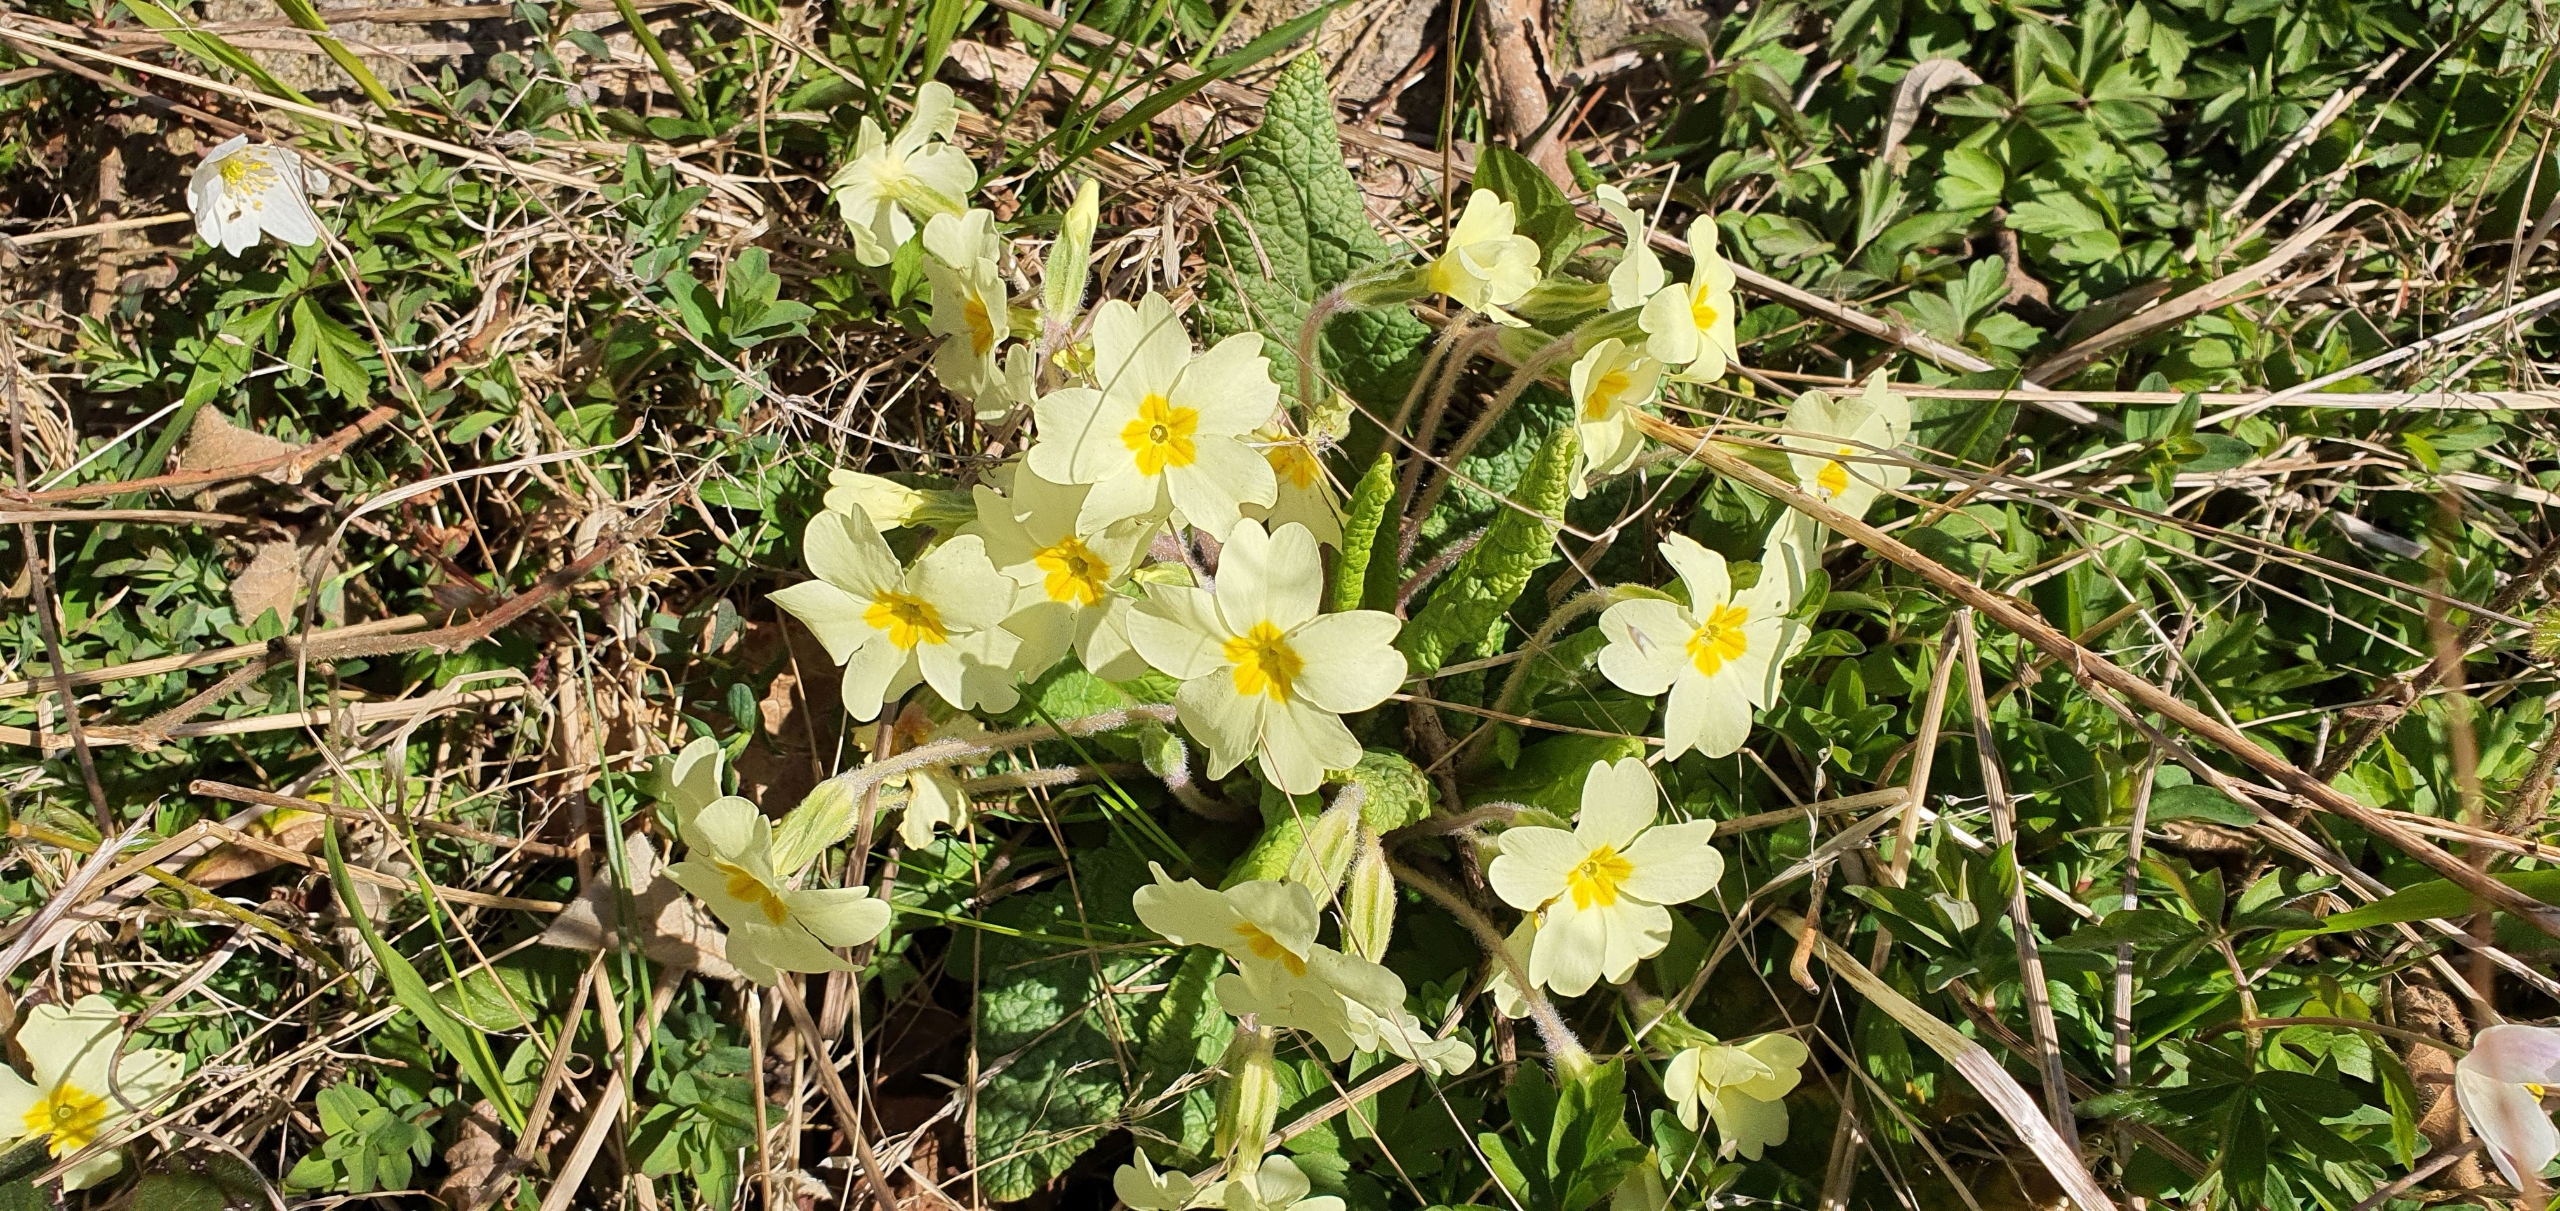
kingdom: Plantae
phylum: Tracheophyta
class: Magnoliopsida
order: Ericales
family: Primulaceae
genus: Primula
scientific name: Primula vulgaris
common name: Storblomstret kodriver
